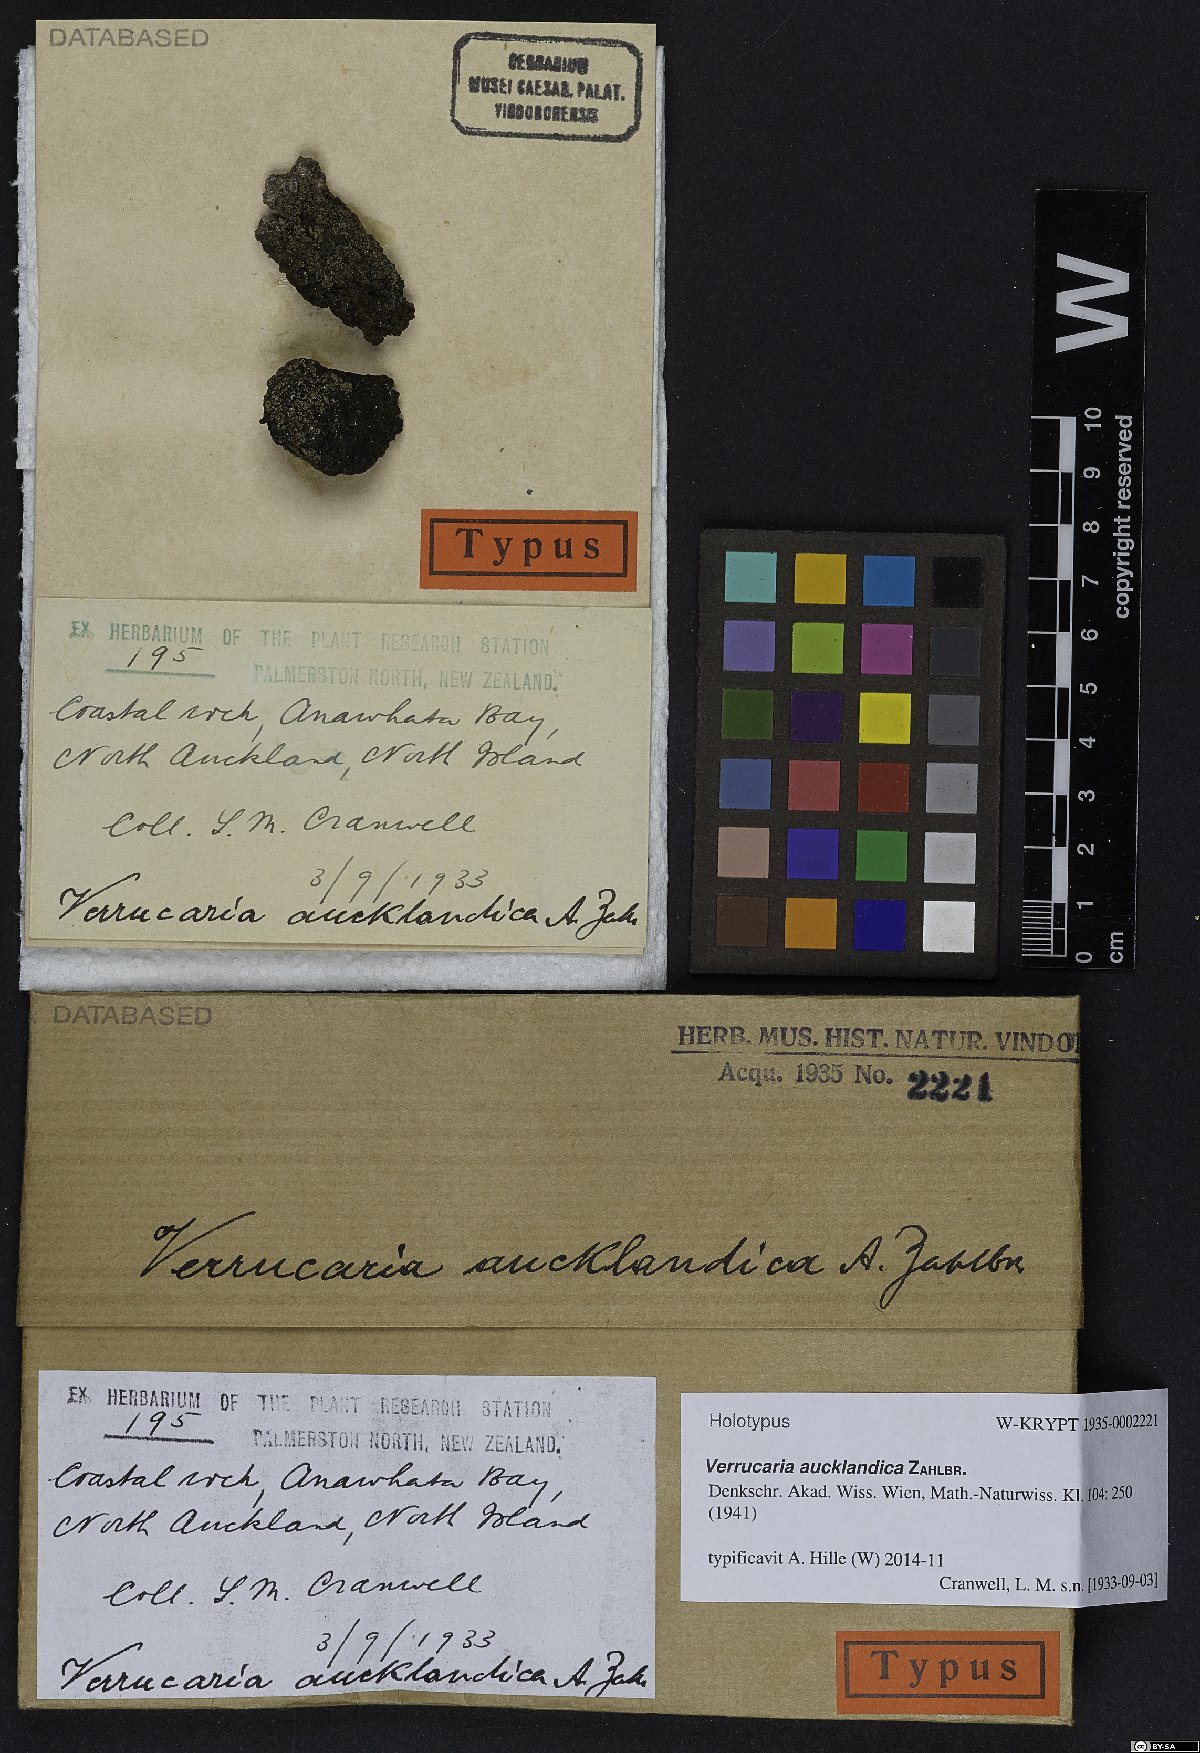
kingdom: Fungi
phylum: Ascomycota
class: Eurotiomycetes
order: Verrucariales
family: Verrucariaceae
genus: Verrucaria
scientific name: Verrucaria aucklandica
